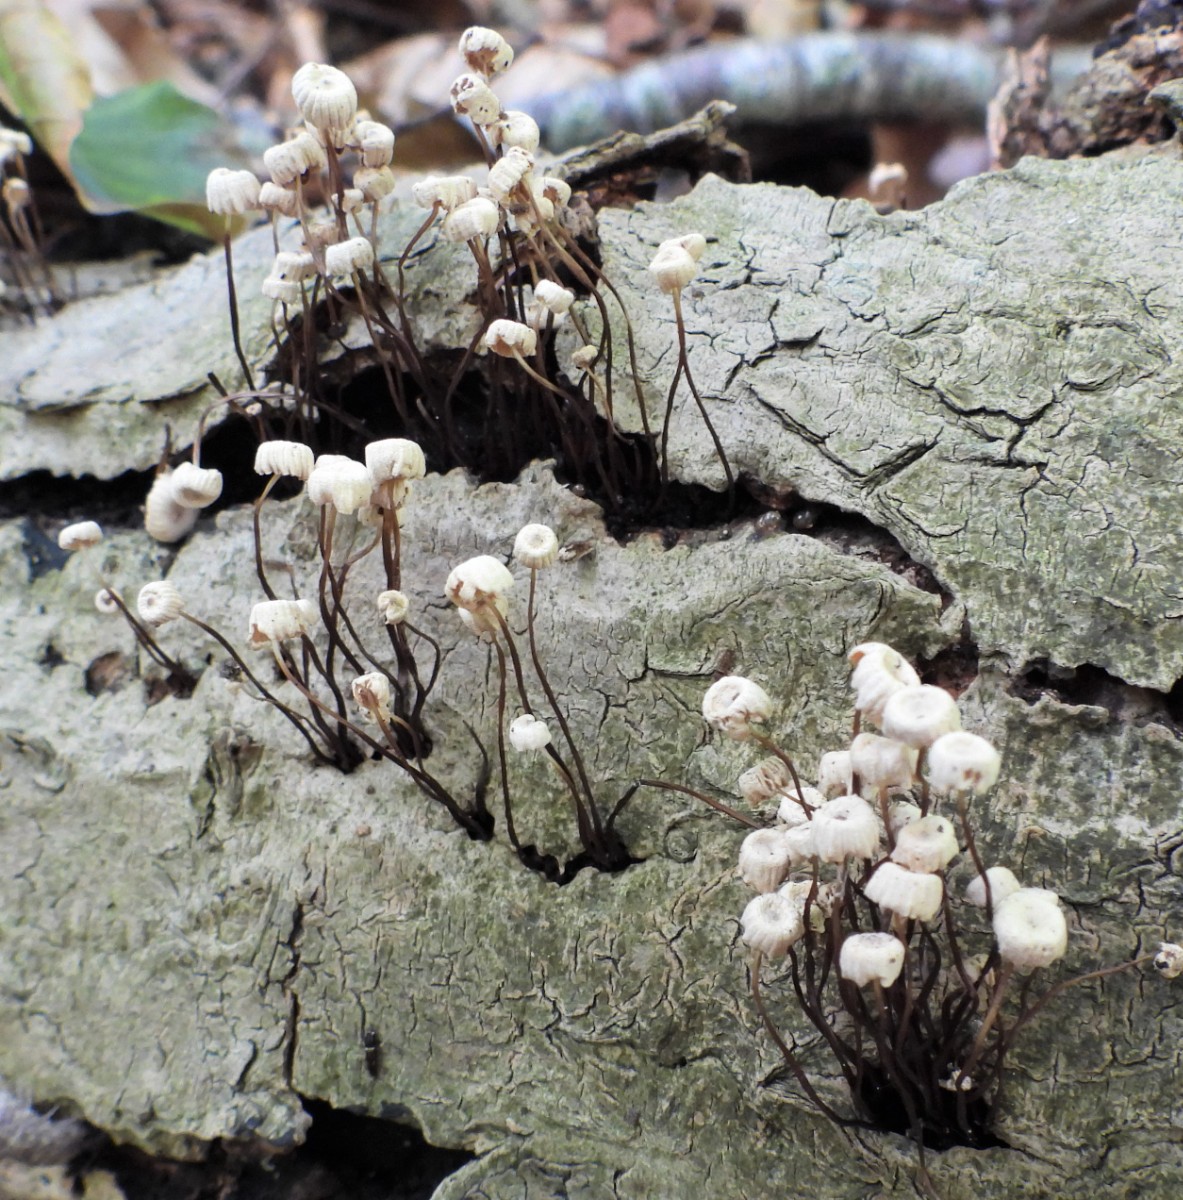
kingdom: Fungi
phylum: Basidiomycota
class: Agaricomycetes
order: Agaricales
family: Marasmiaceae
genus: Marasmius
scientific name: Marasmius rotula
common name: hjul-bruskhat
